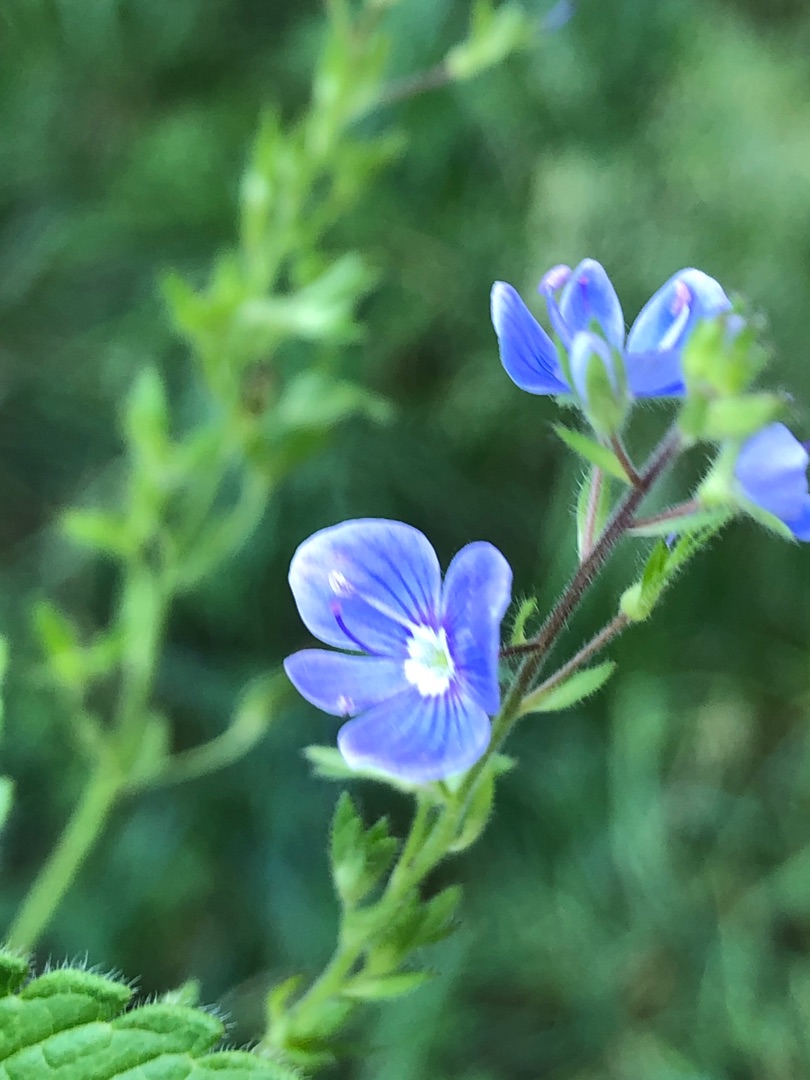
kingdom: Plantae
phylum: Tracheophyta
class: Magnoliopsida
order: Lamiales
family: Plantaginaceae
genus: Veronica
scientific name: Veronica chamaedrys
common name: Tveskægget ærenpris
